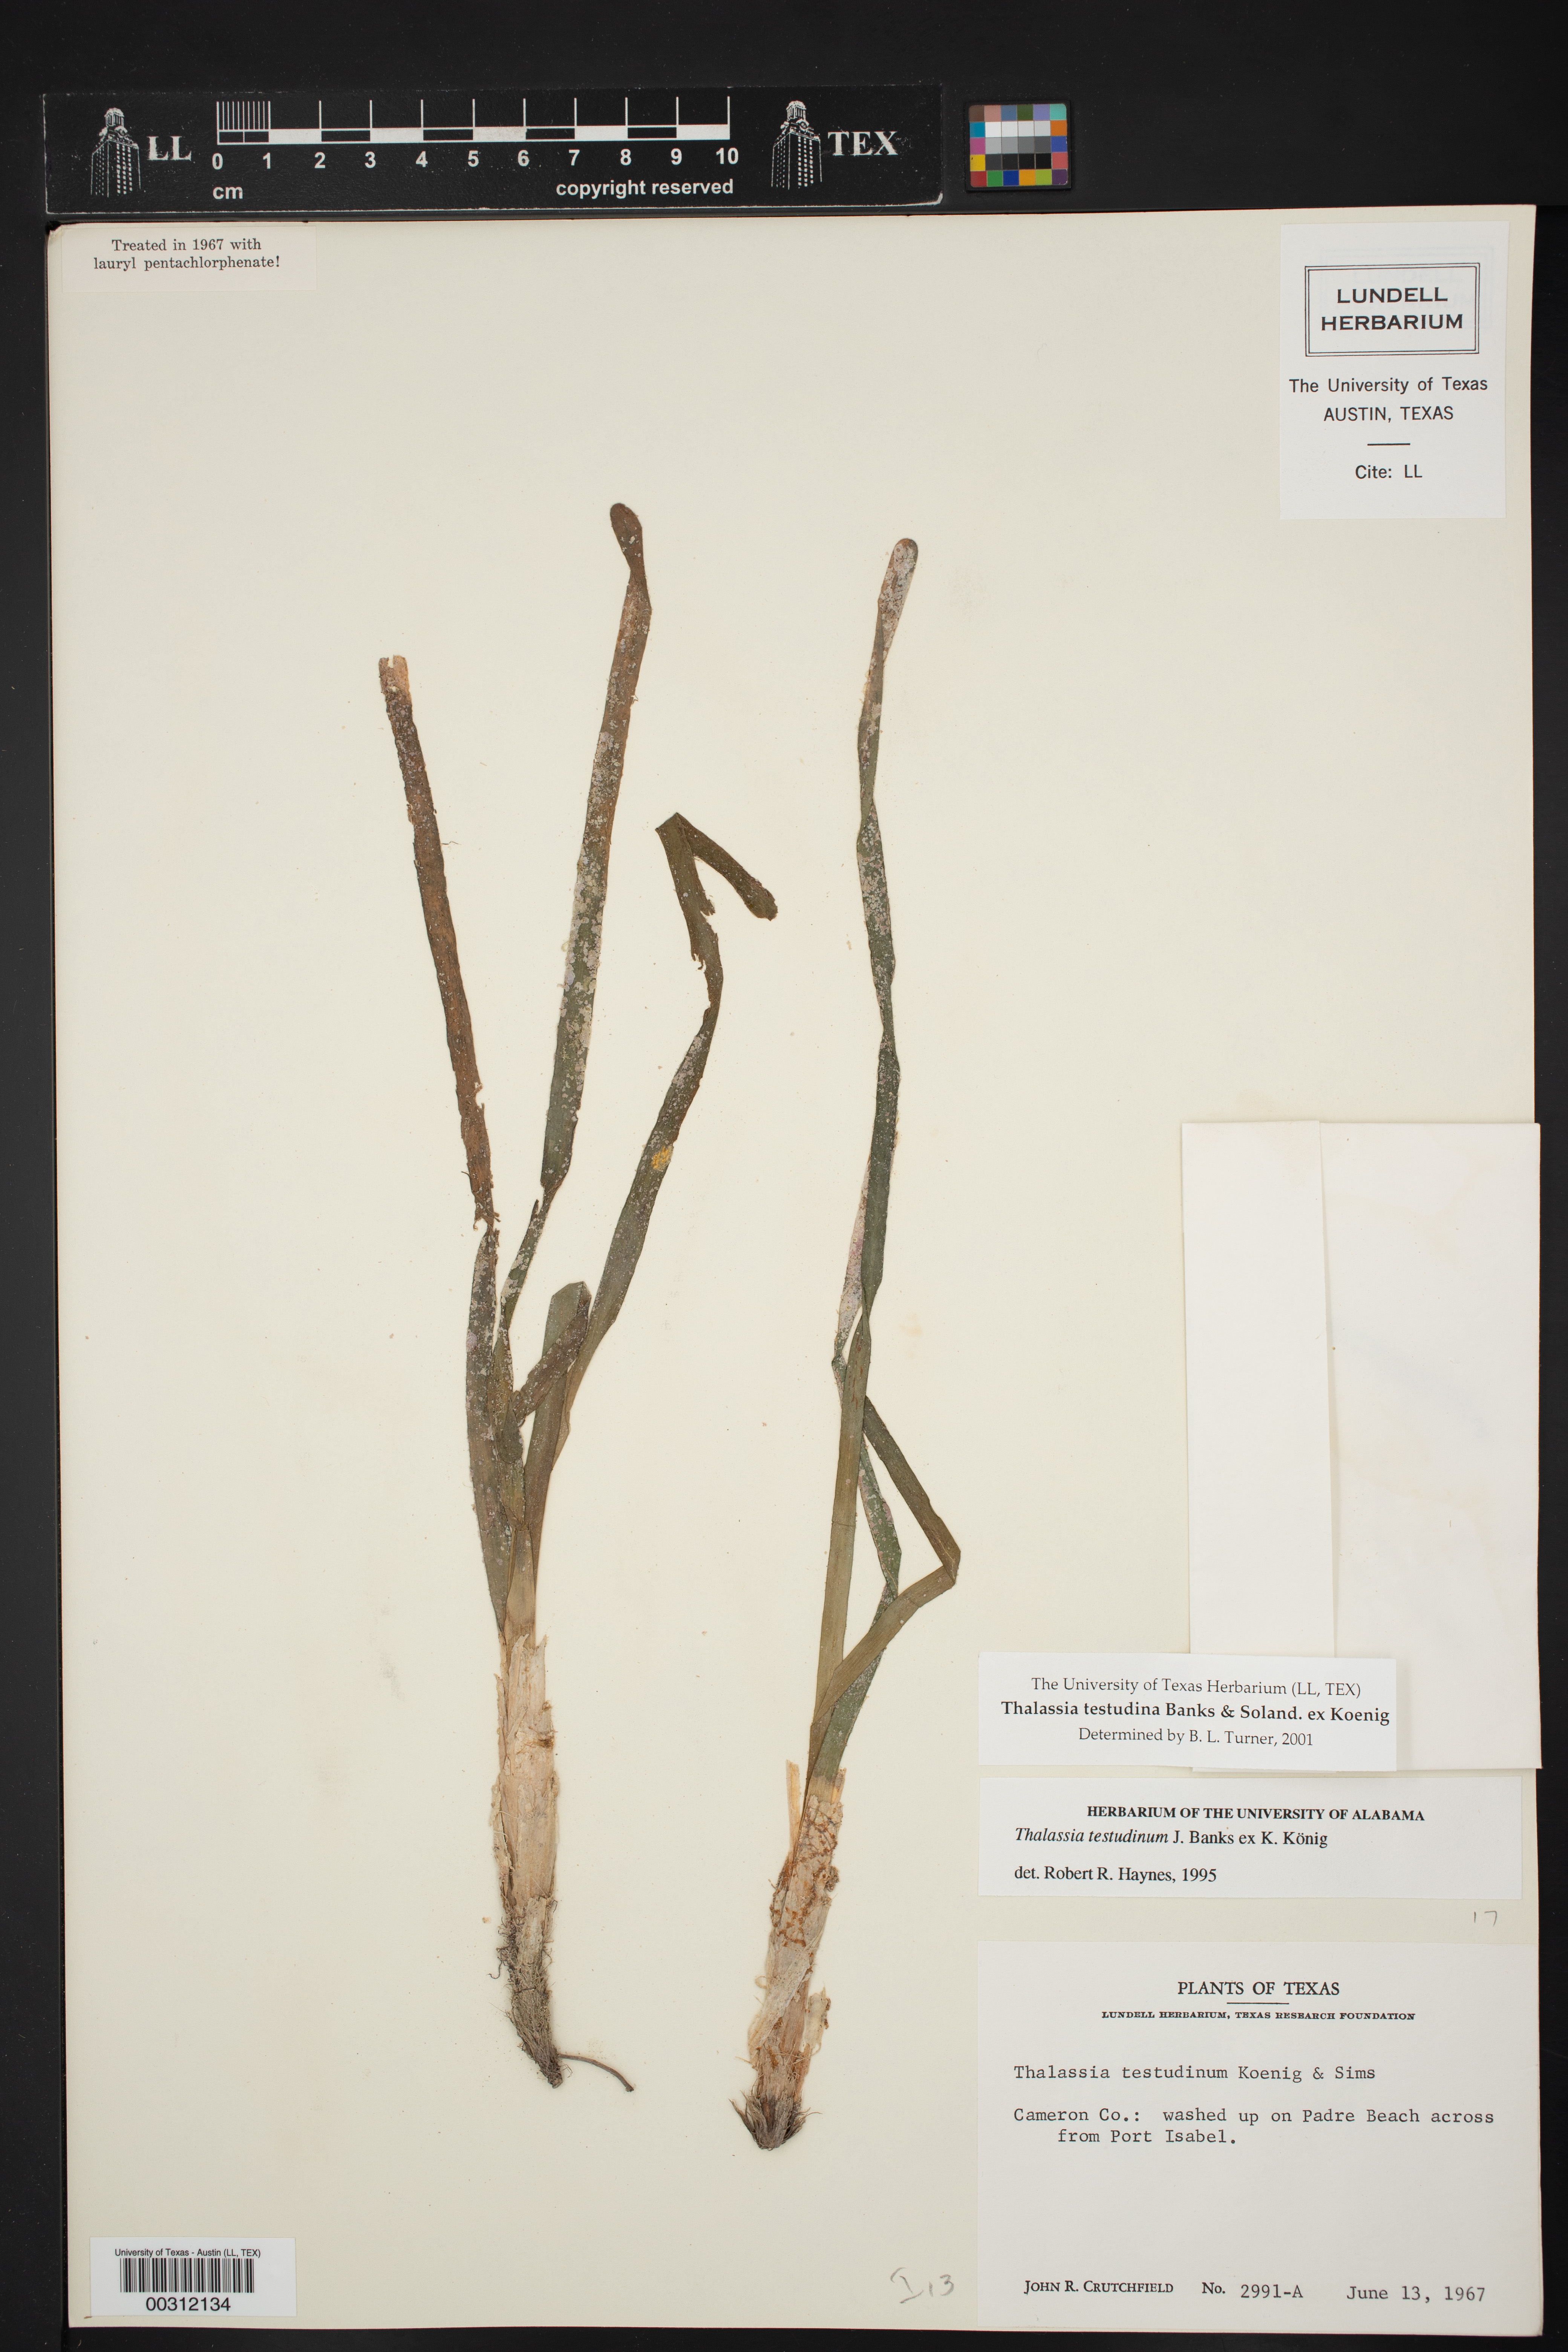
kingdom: Plantae
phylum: Tracheophyta
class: Liliopsida
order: Alismatales
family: Hydrocharitaceae
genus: Thalassia
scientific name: Thalassia testudinum
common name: Species code: tt
